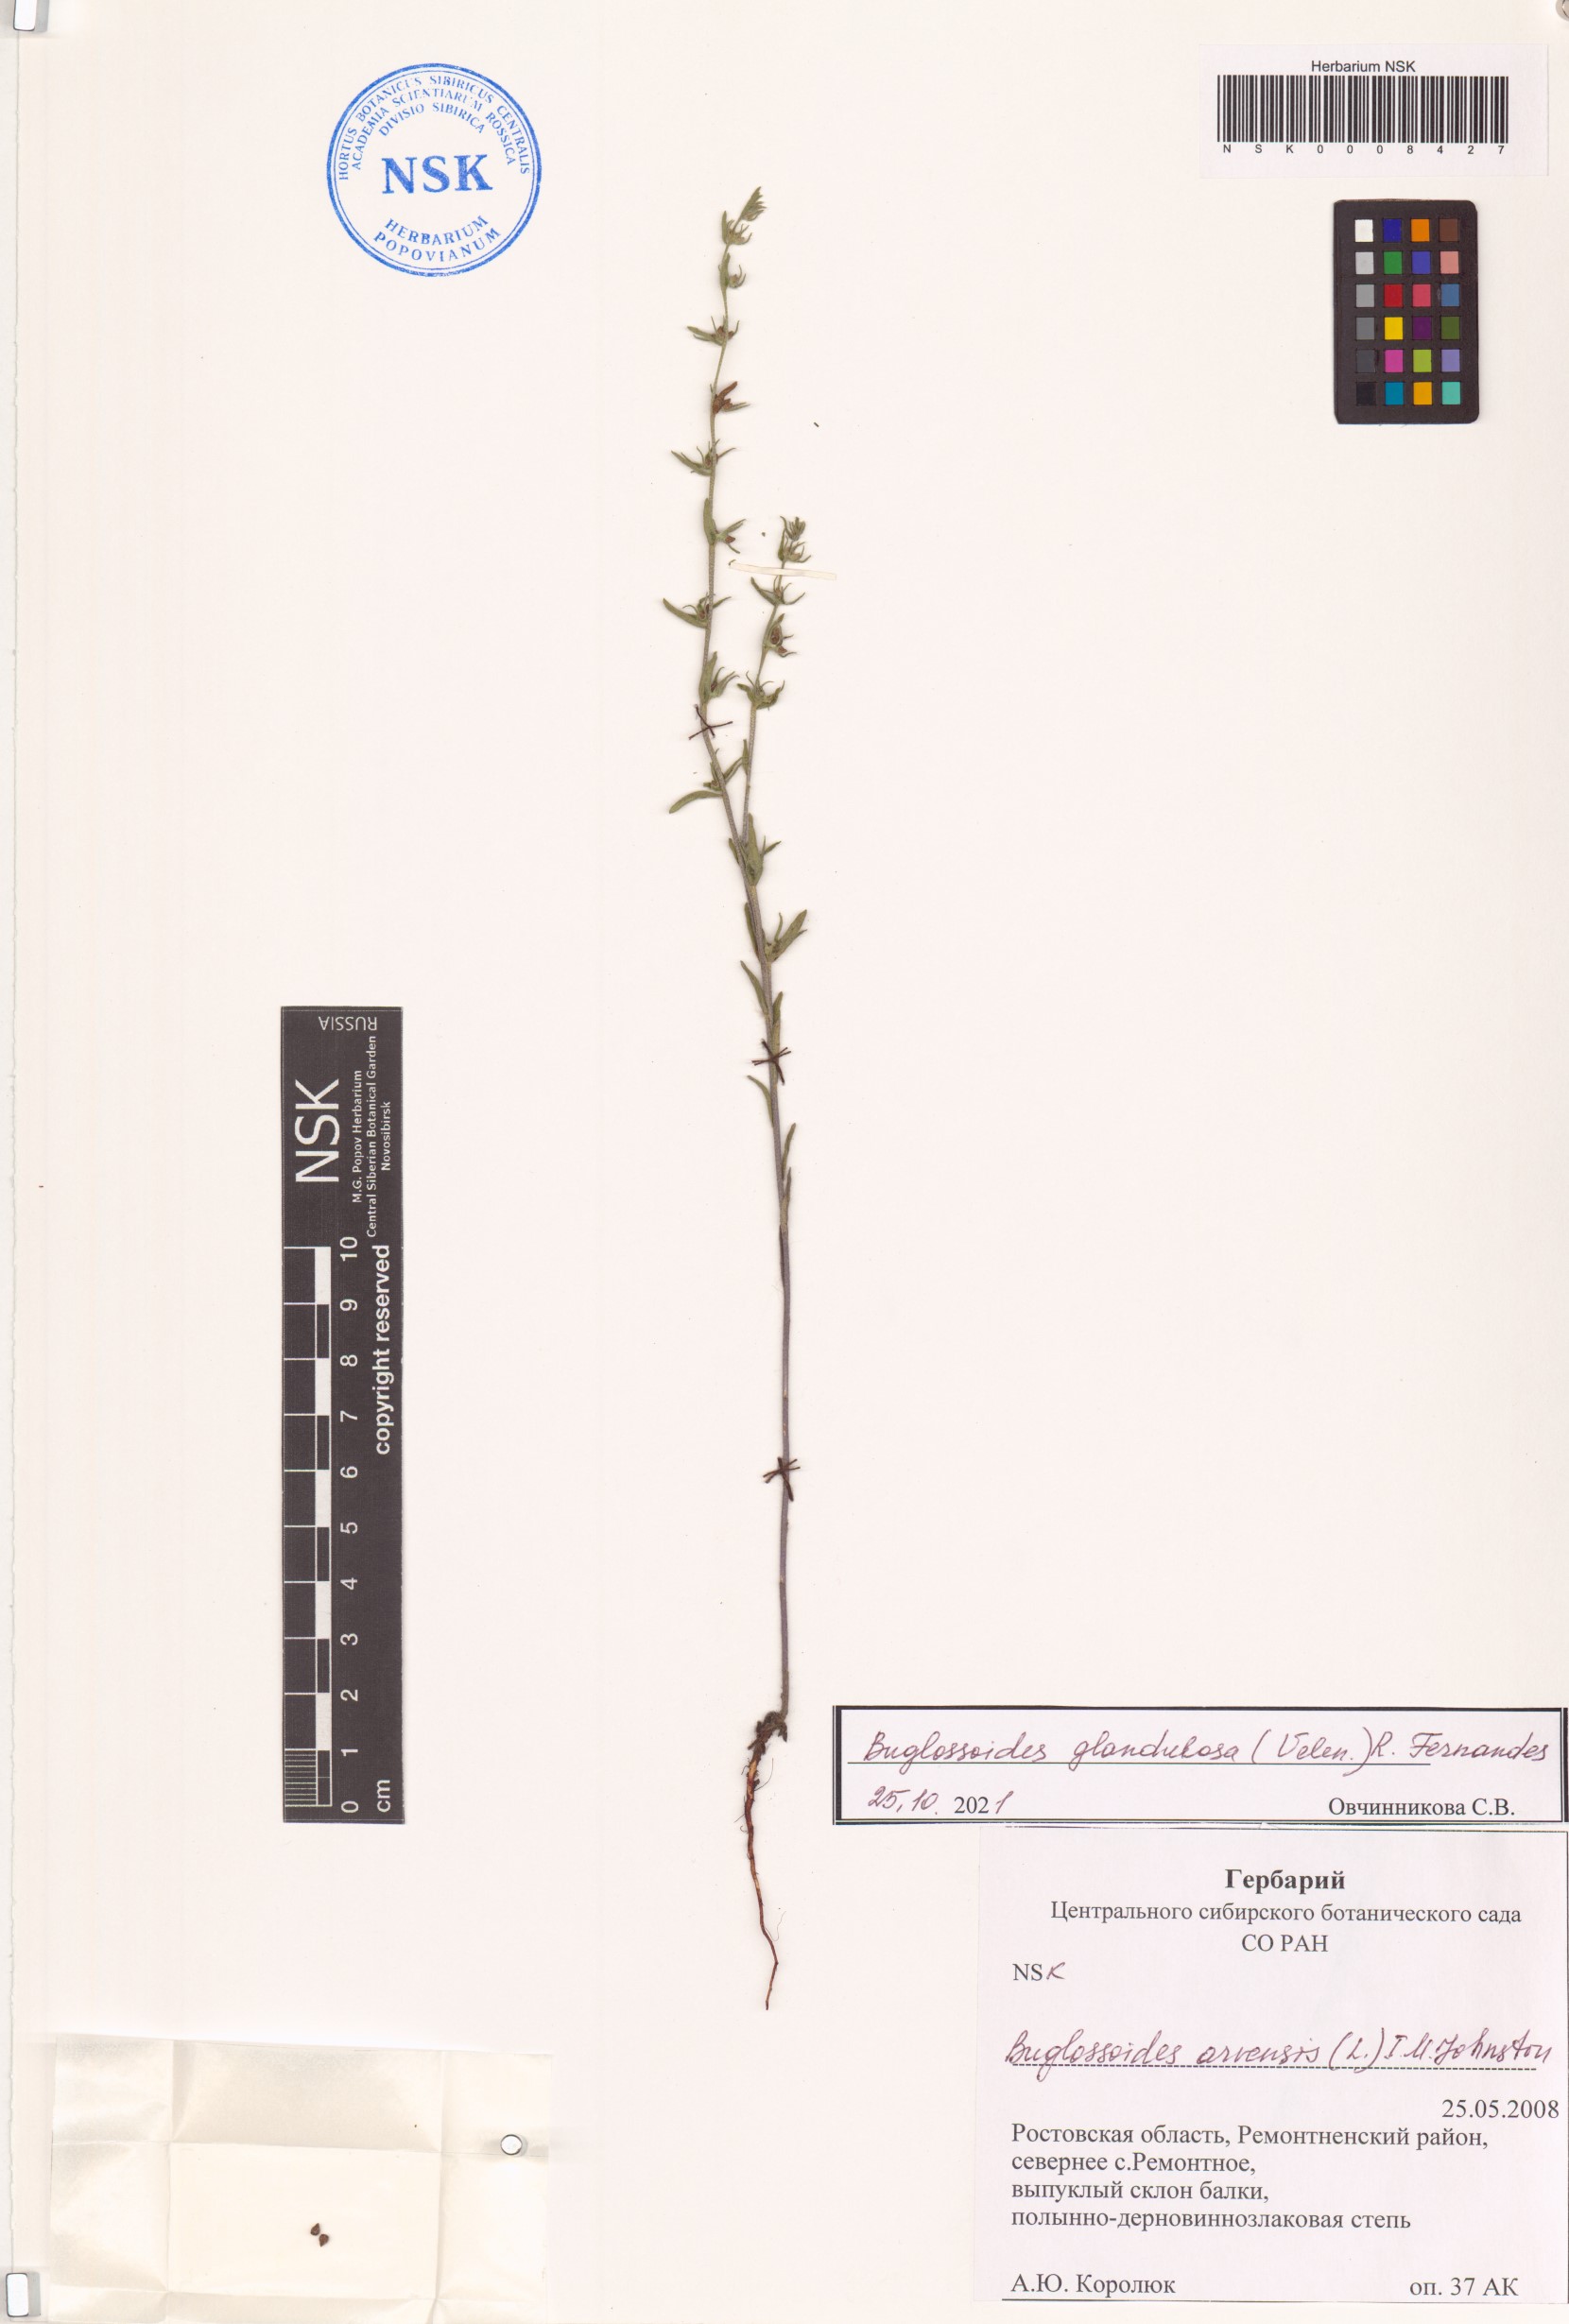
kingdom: Plantae
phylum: Tracheophyta
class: Magnoliopsida
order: Boraginales
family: Boraginaceae
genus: Buglossoides
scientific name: Buglossoides arvensis
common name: Corn gromwell
